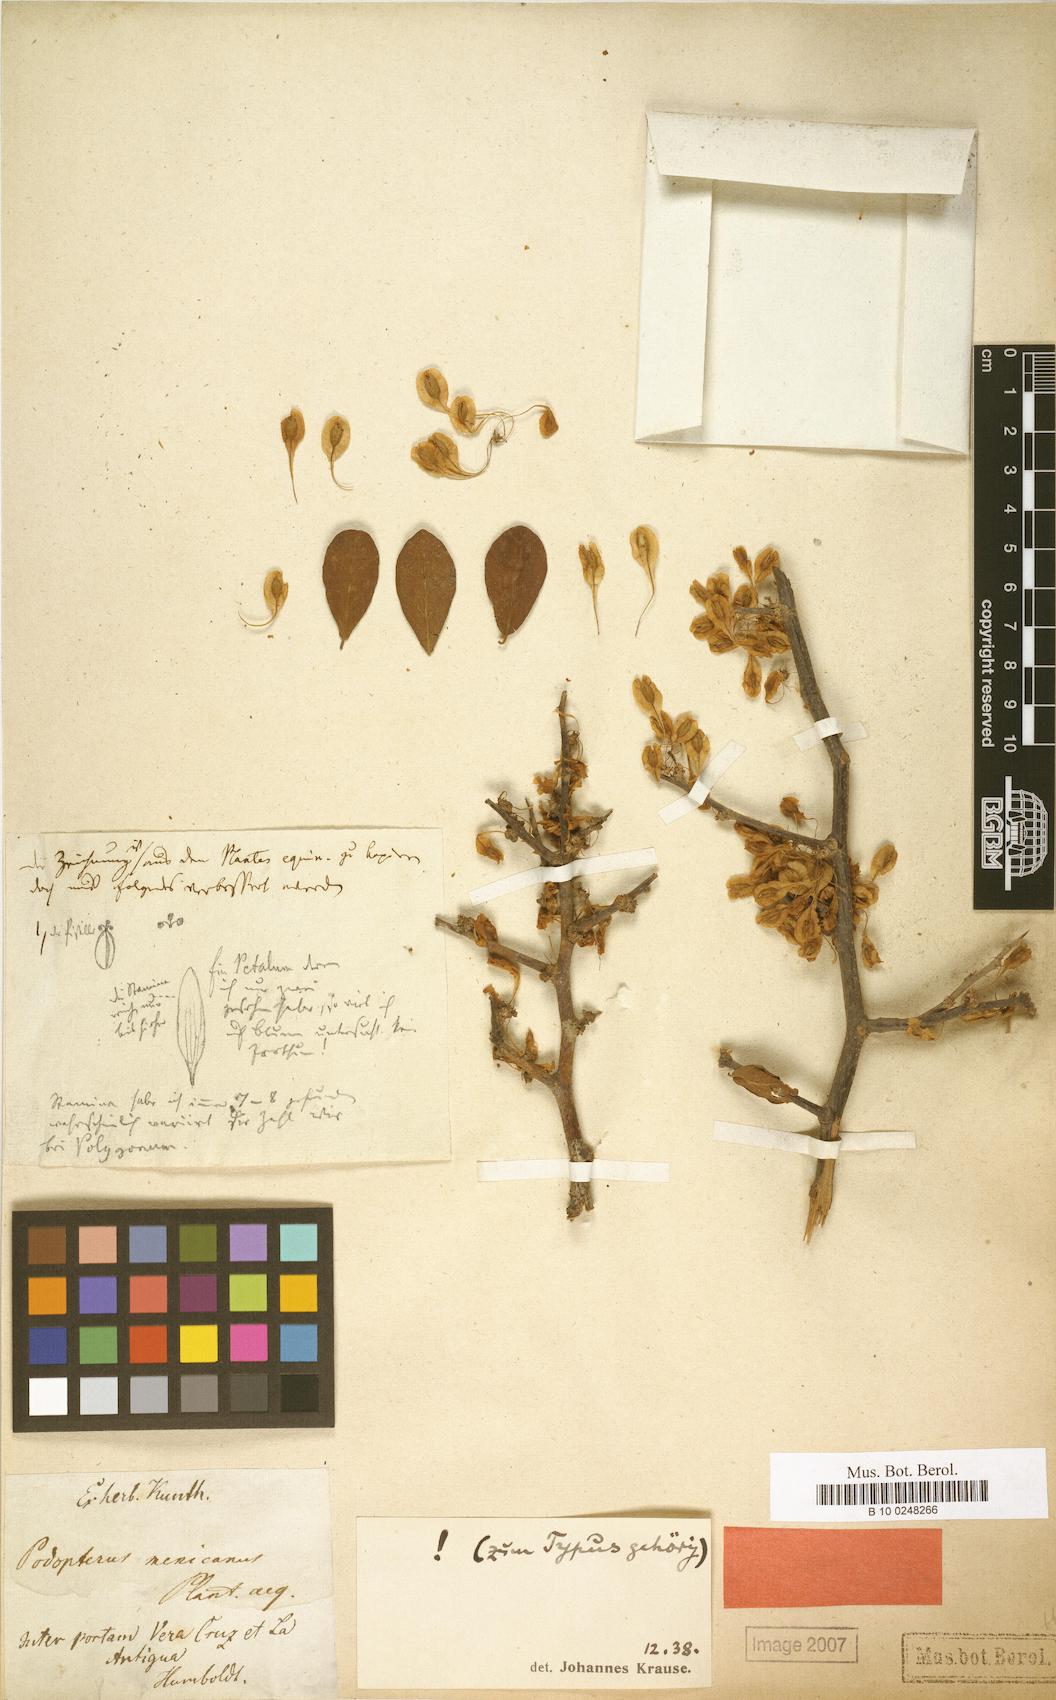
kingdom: Plantae
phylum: Tracheophyta
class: Magnoliopsida
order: Caryophyllales
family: Polygonaceae
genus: Podopterus
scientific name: Podopterus mexicanus
